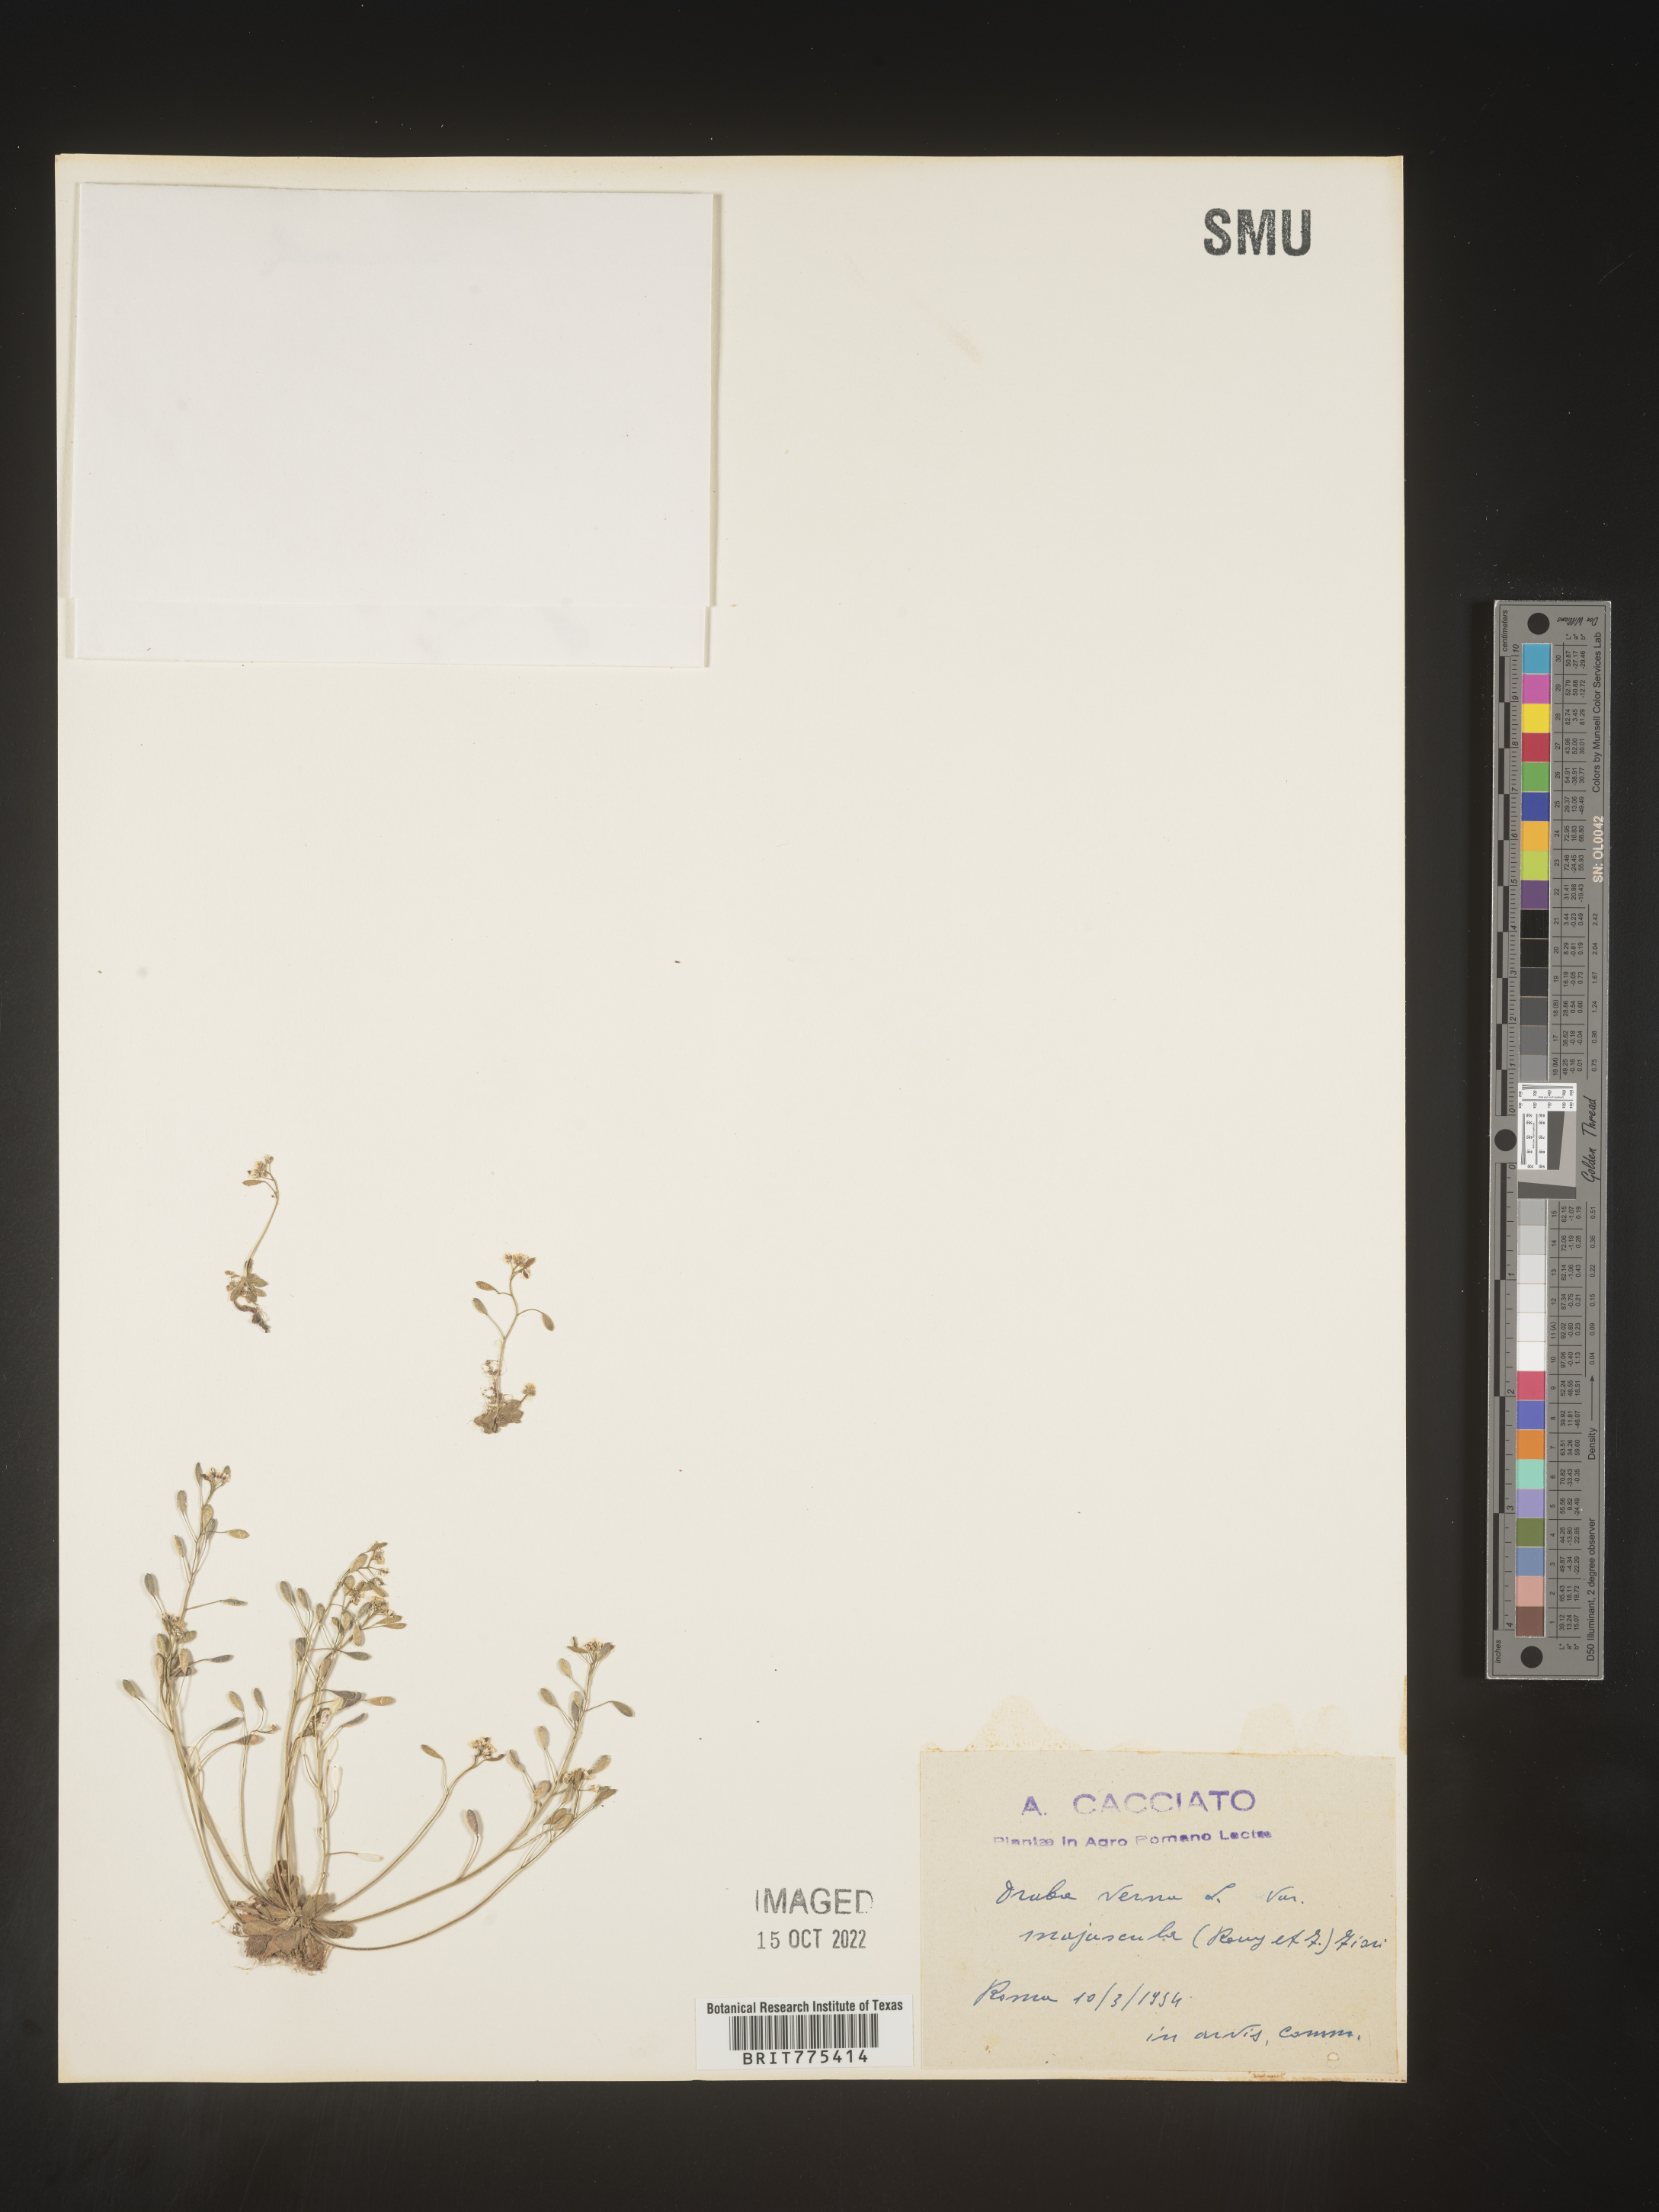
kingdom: Plantae
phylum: Tracheophyta
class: Magnoliopsida
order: Brassicales
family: Brassicaceae
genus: Draba
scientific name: Draba
